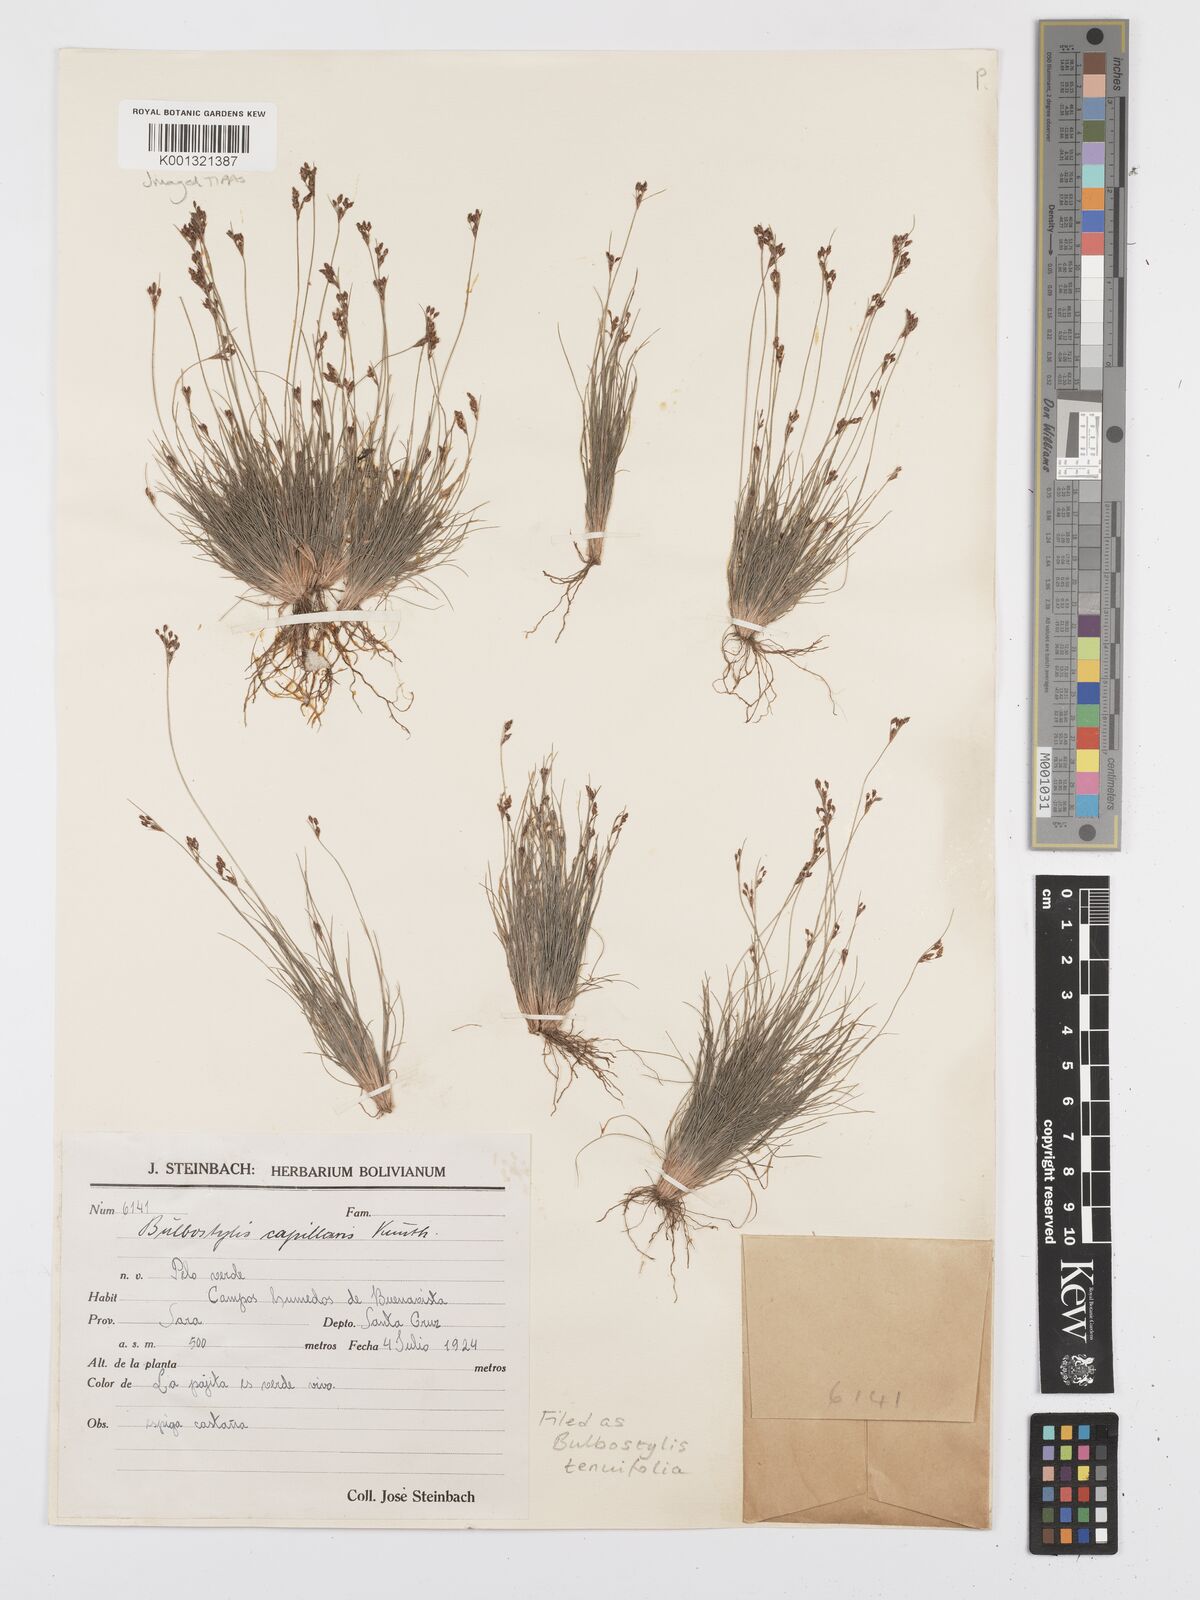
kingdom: Plantae
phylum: Tracheophyta
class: Liliopsida
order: Poales
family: Cyperaceae
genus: Bulbostylis
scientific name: Bulbostylis tenuifolia
